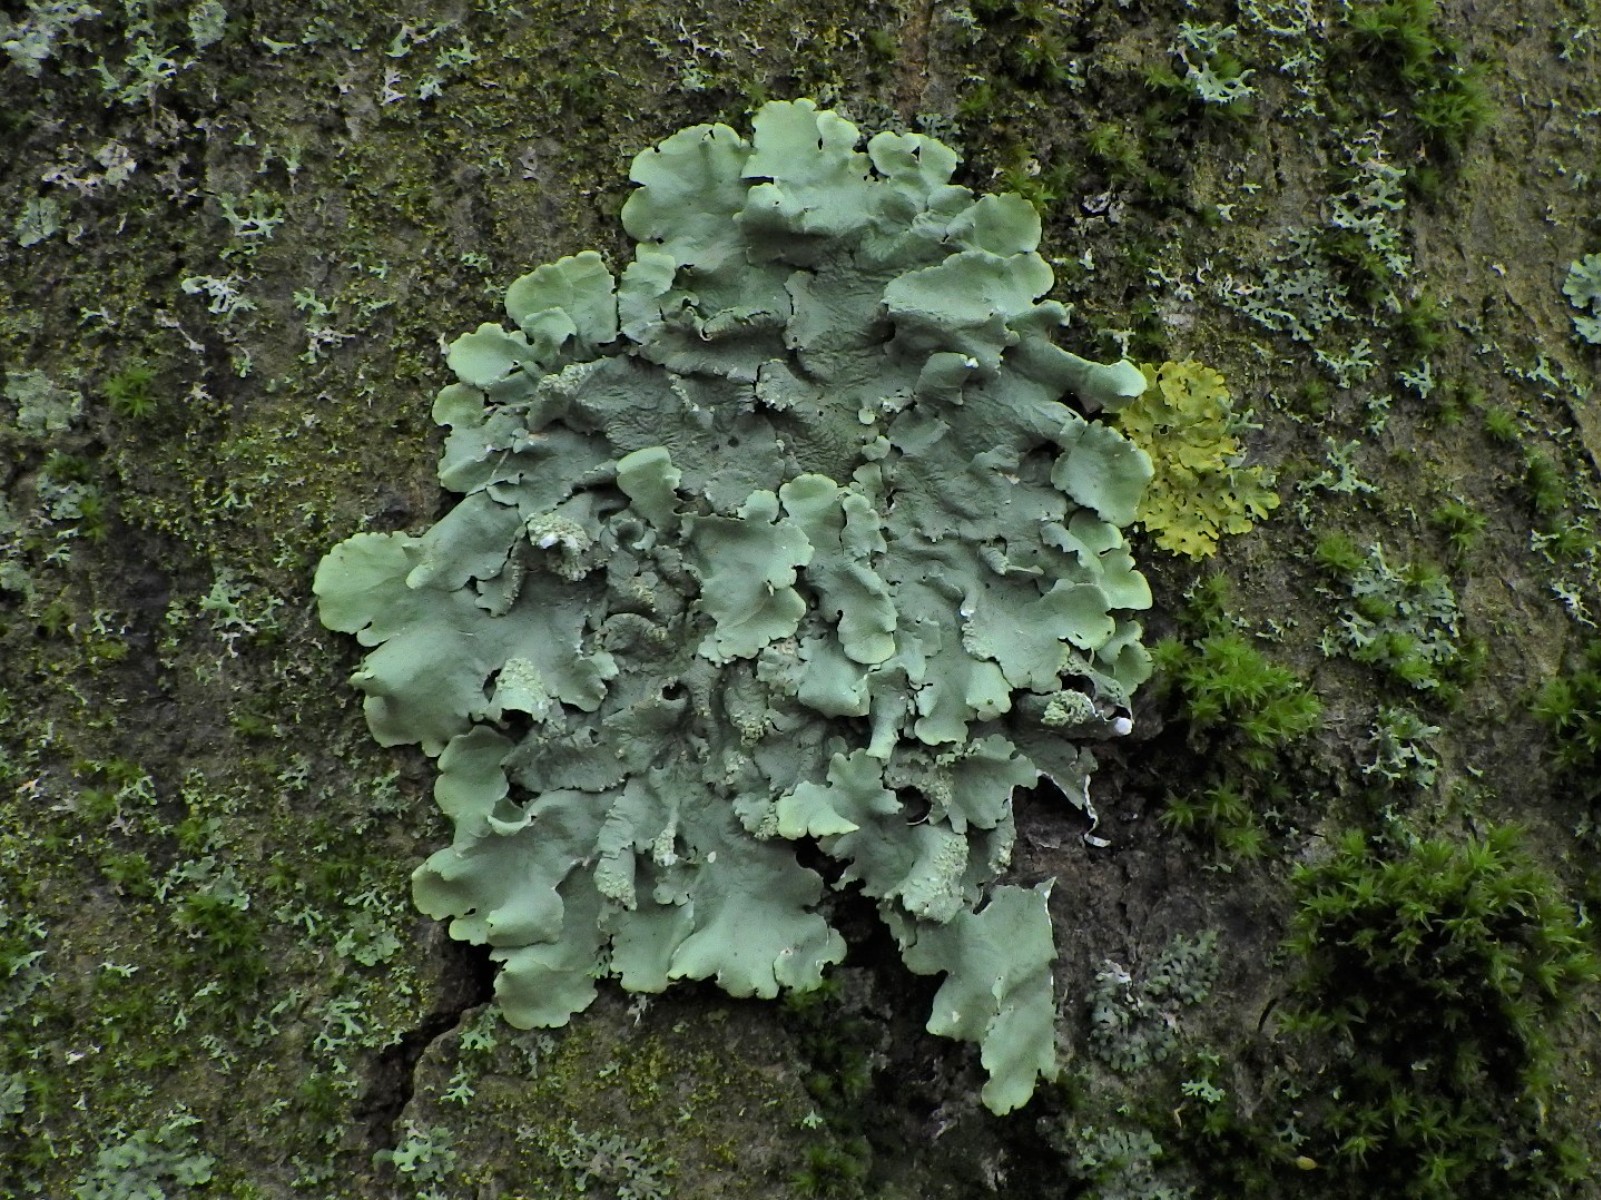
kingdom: Fungi
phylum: Ascomycota
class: Lecanoromycetes
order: Lecanorales
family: Parmeliaceae
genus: Flavoparmelia
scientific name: Flavoparmelia caperata
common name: gulgrøn skållav
